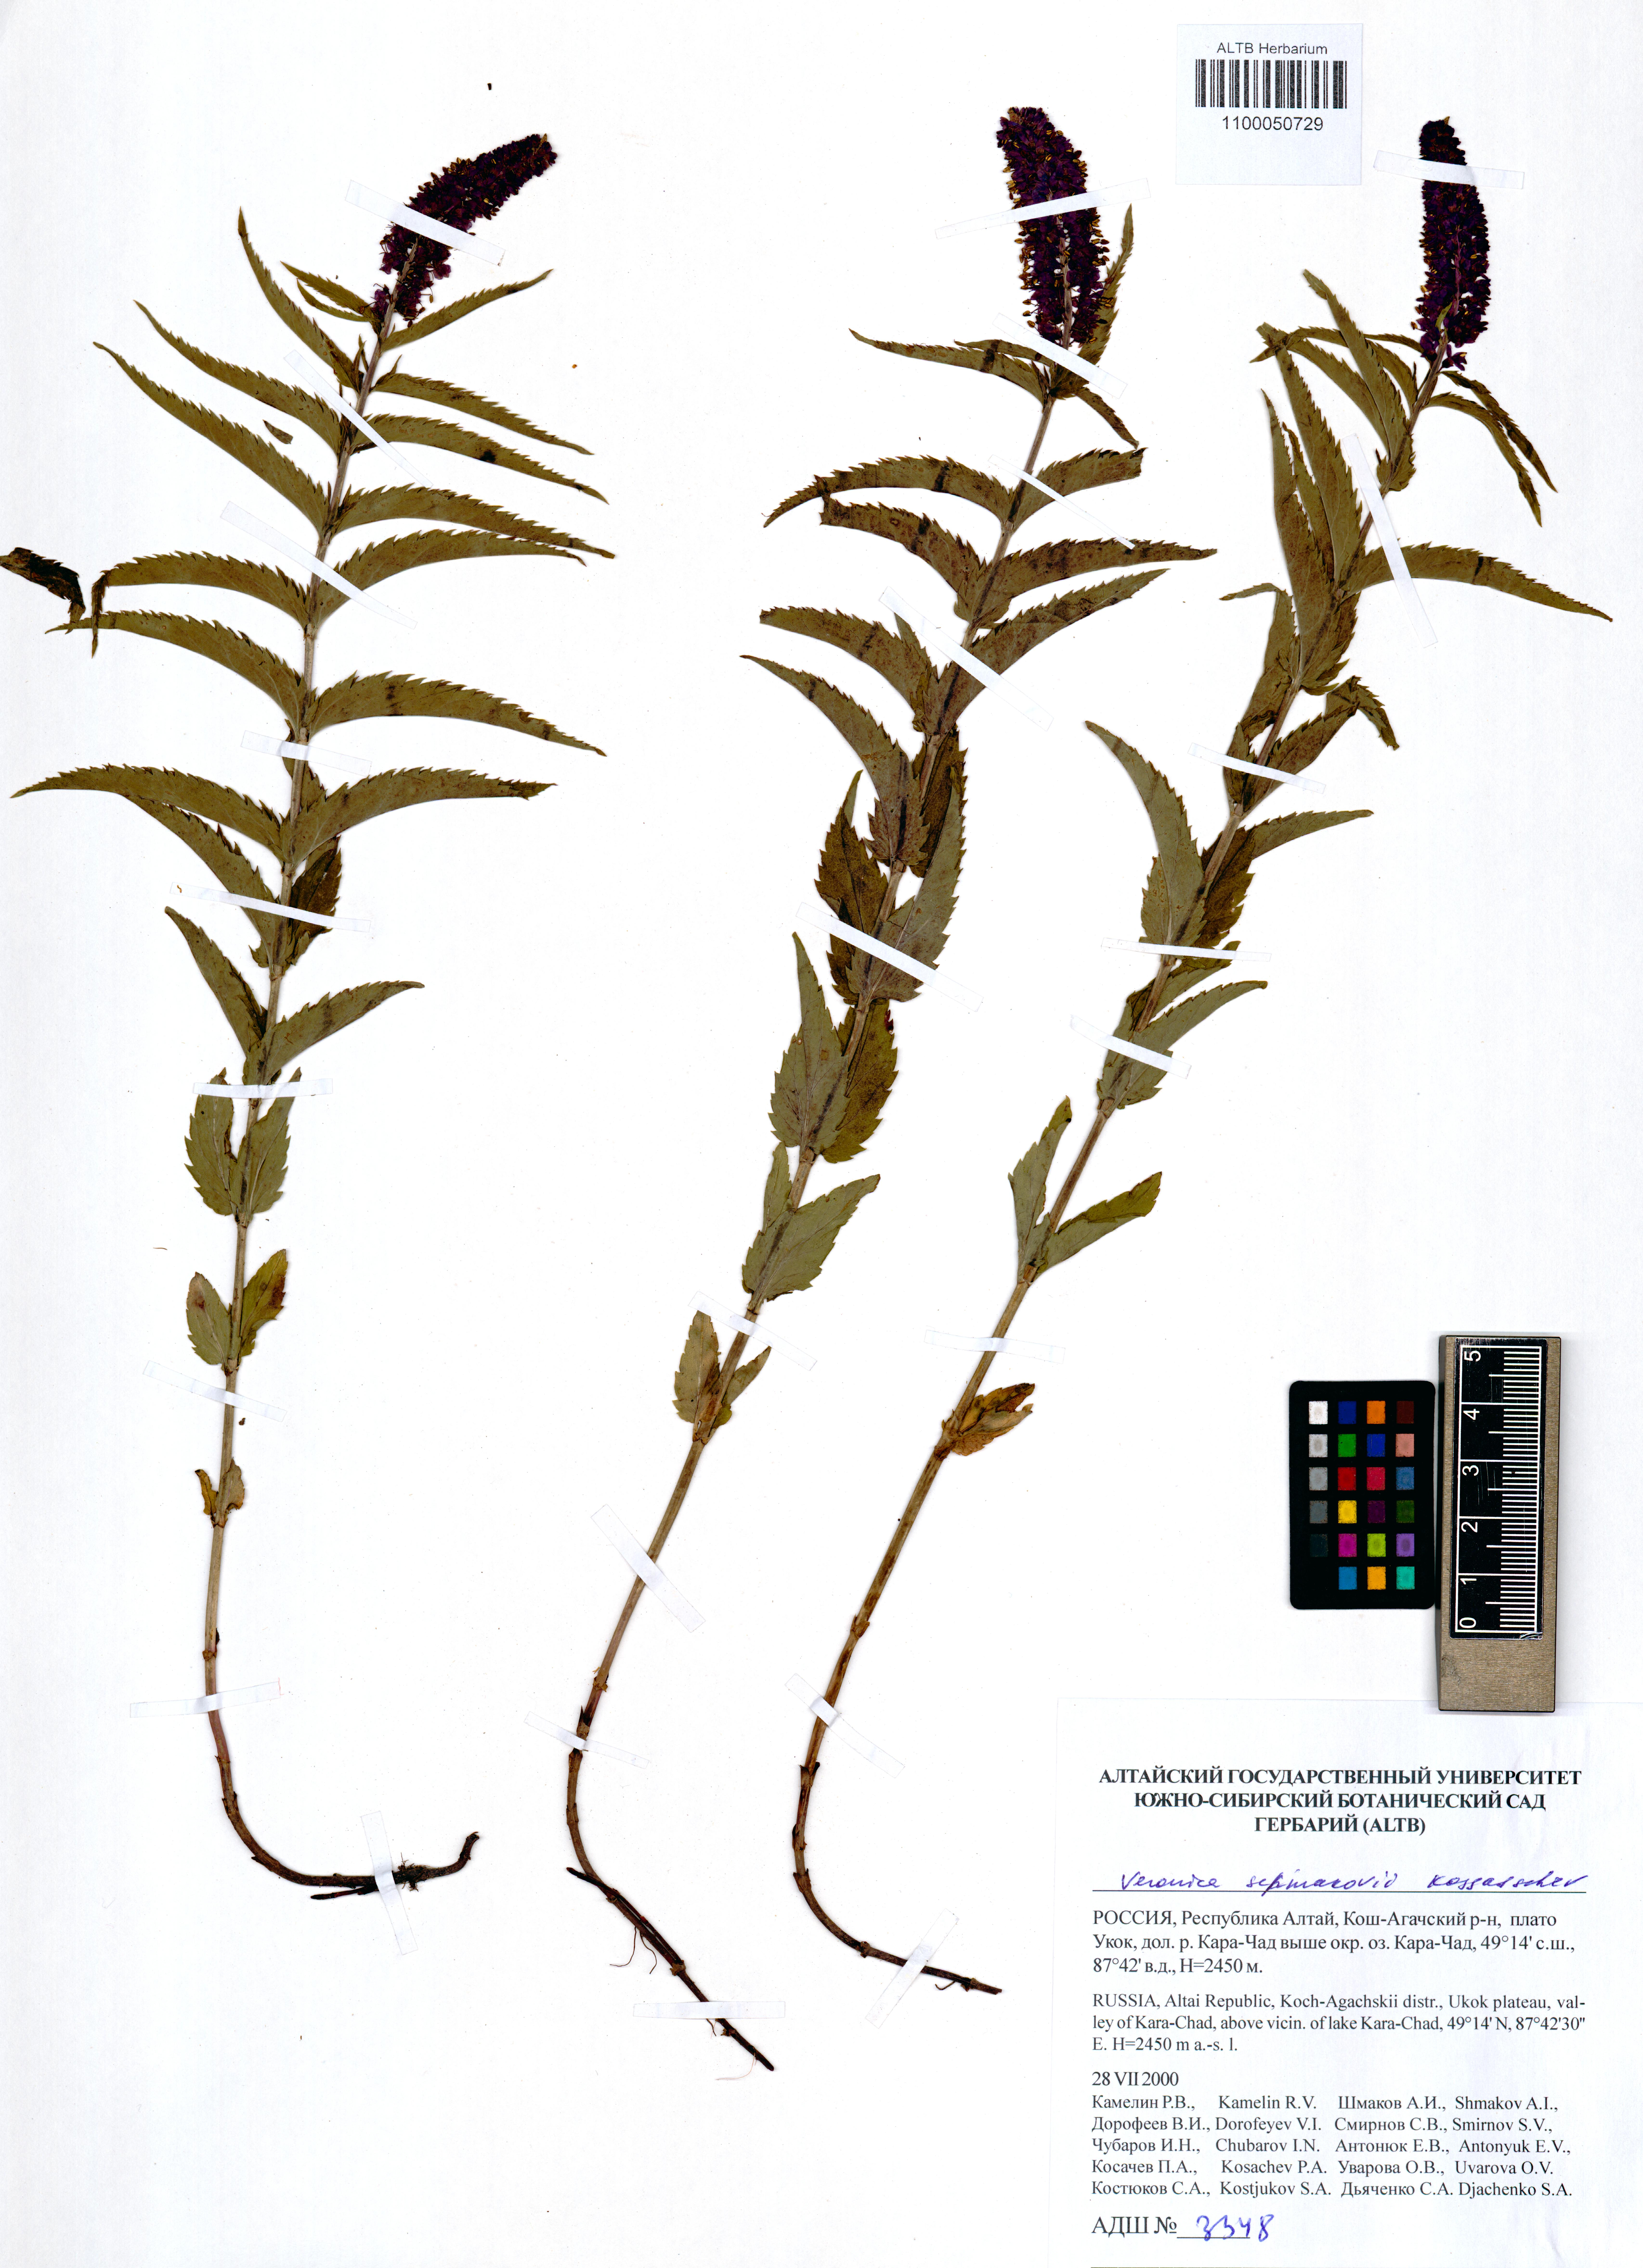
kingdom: Plantae
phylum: Tracheophyta
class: Magnoliopsida
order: Lamiales
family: Plantaginaceae
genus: Veronica
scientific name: Veronica schmakovii
